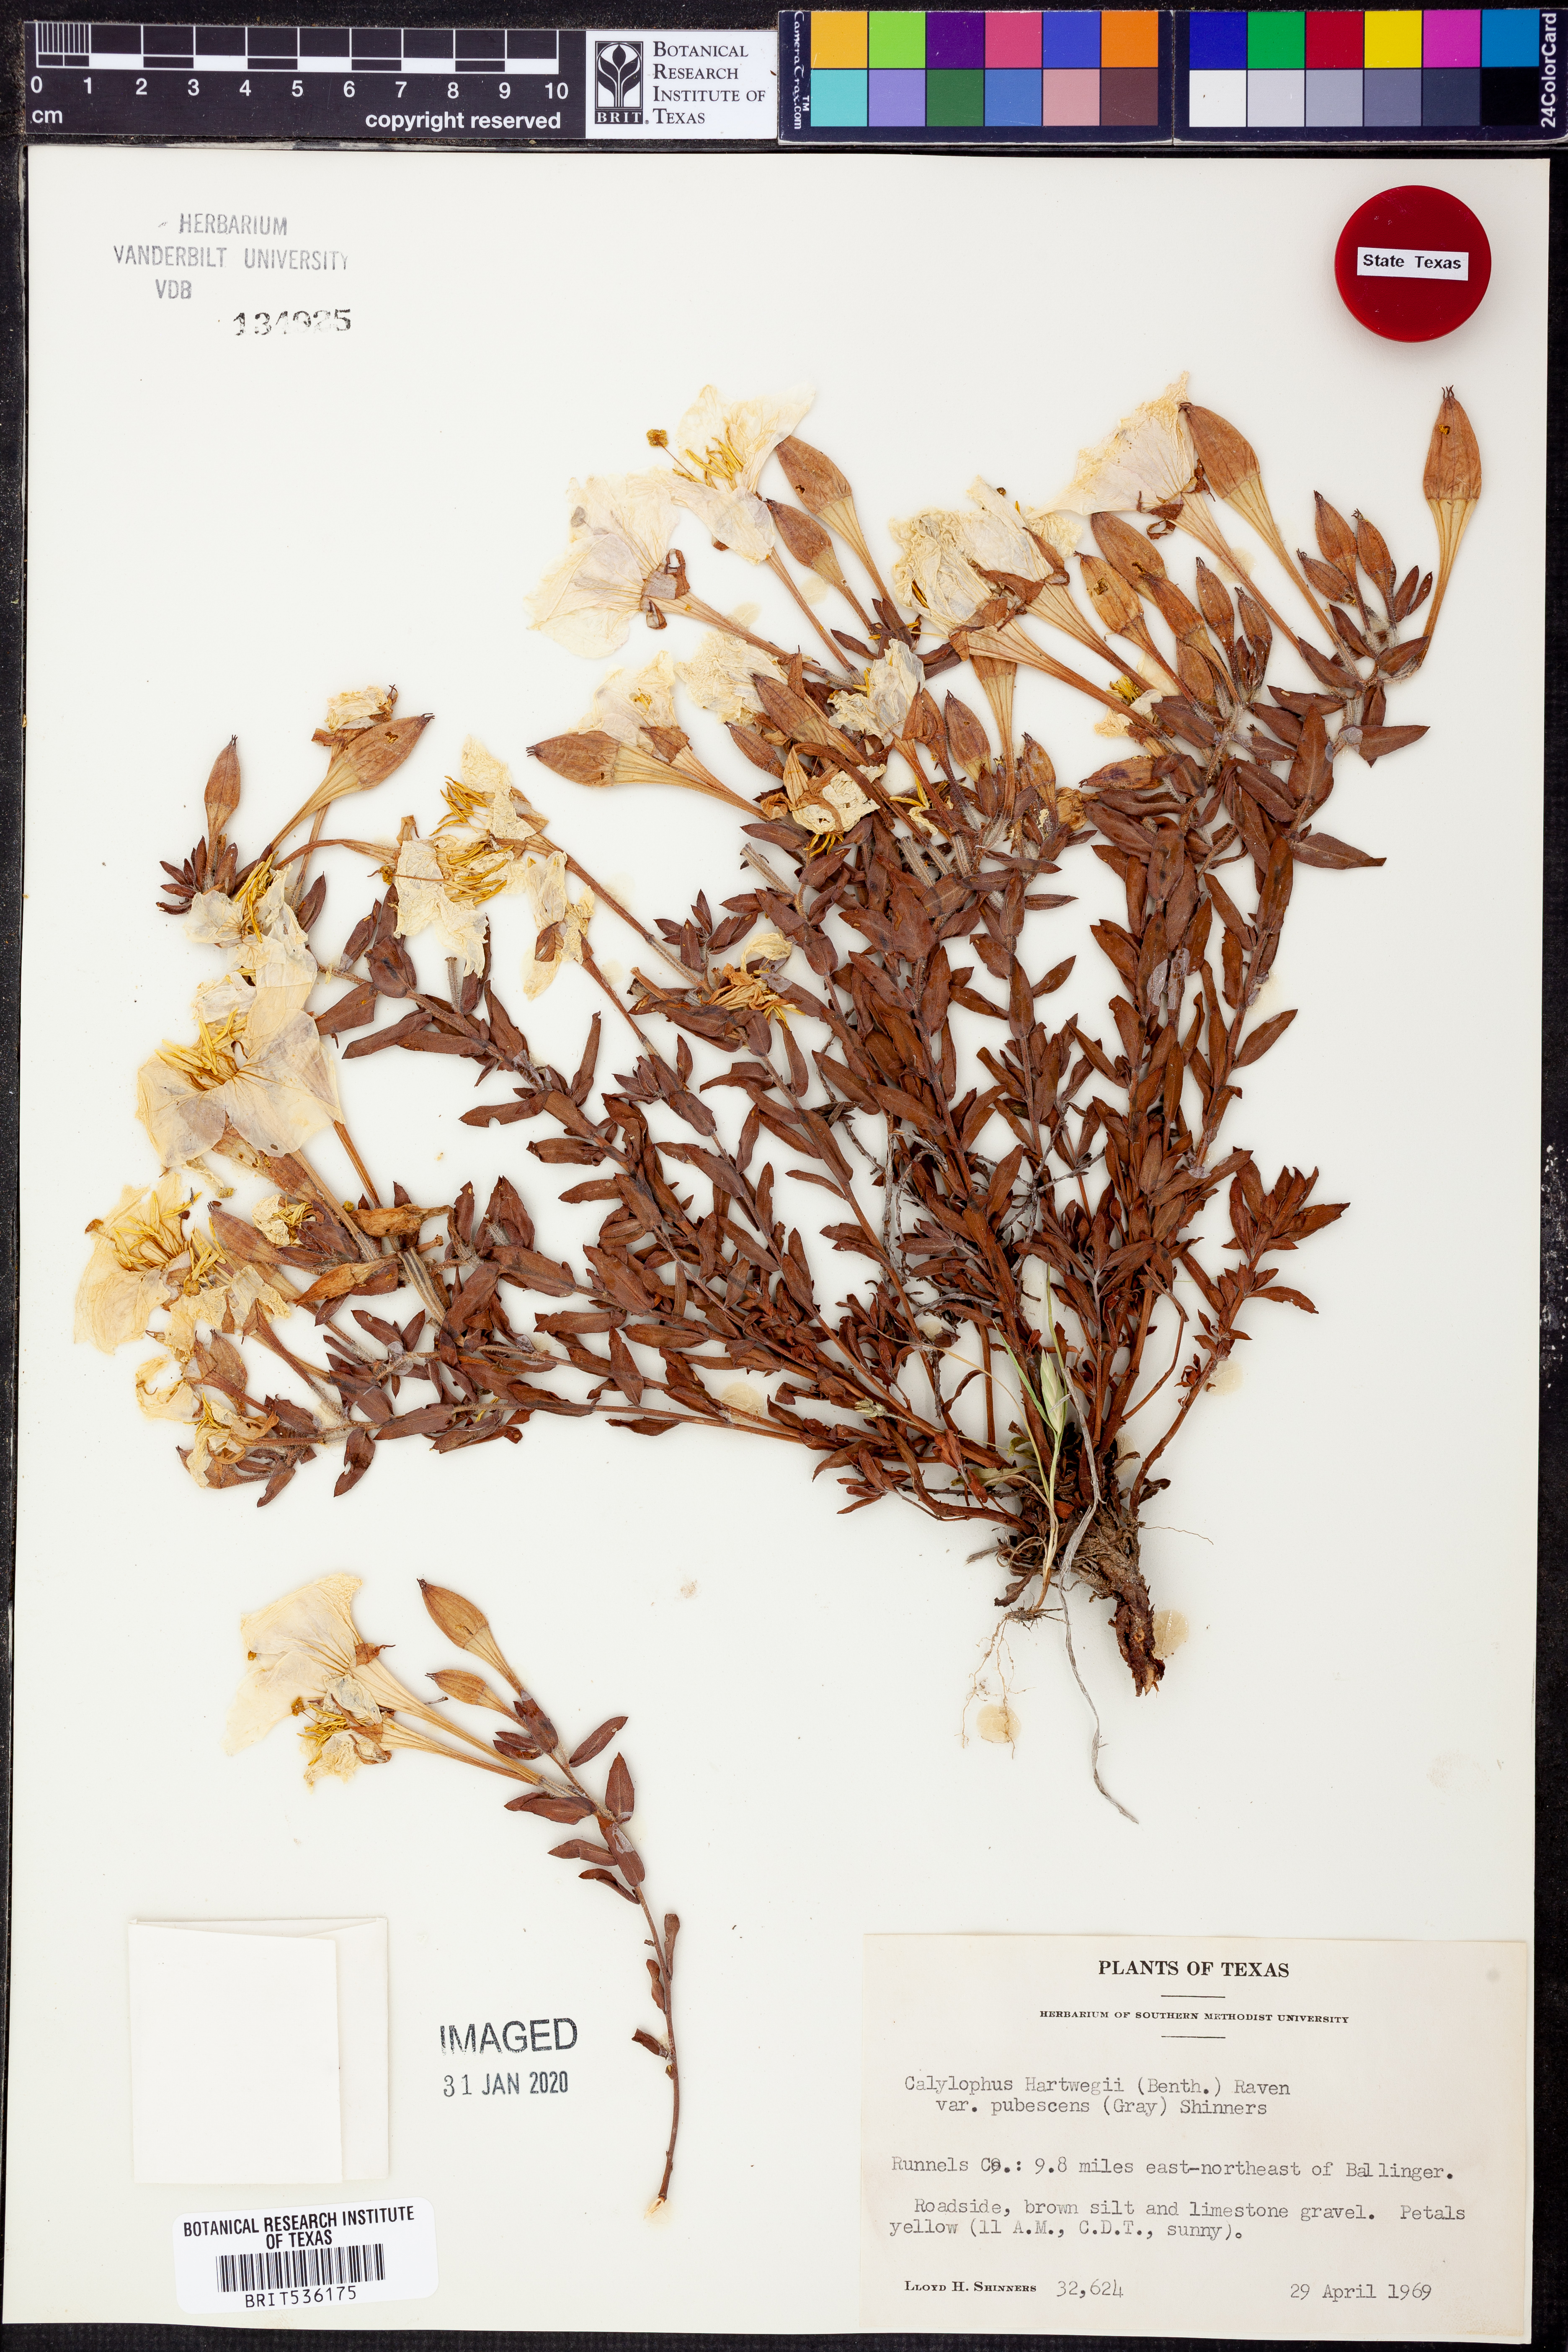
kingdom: Plantae
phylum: Tracheophyta
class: Magnoliopsida
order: Myrtales
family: Onagraceae
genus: Oenothera
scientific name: Oenothera hartwegii
